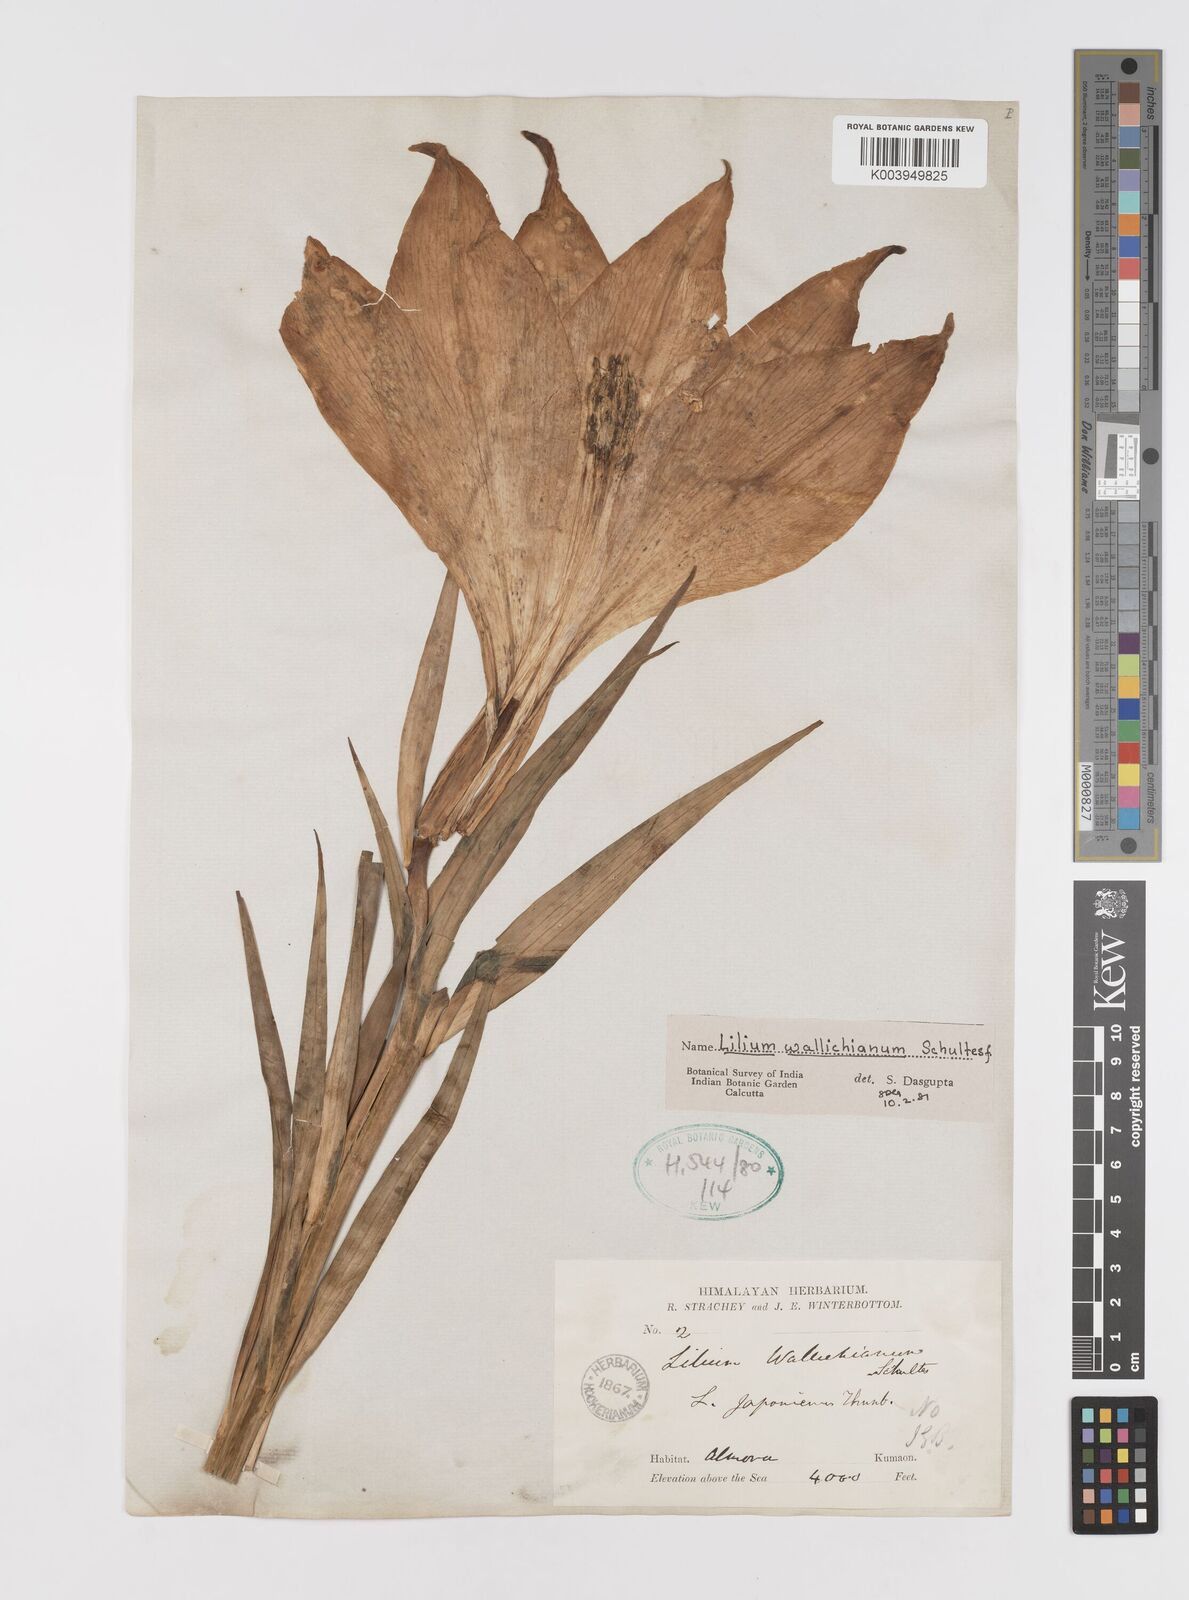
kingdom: Plantae
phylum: Tracheophyta
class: Liliopsida
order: Liliales
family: Liliaceae
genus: Lilium
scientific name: Lilium wallichianum
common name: Wallich's lily
